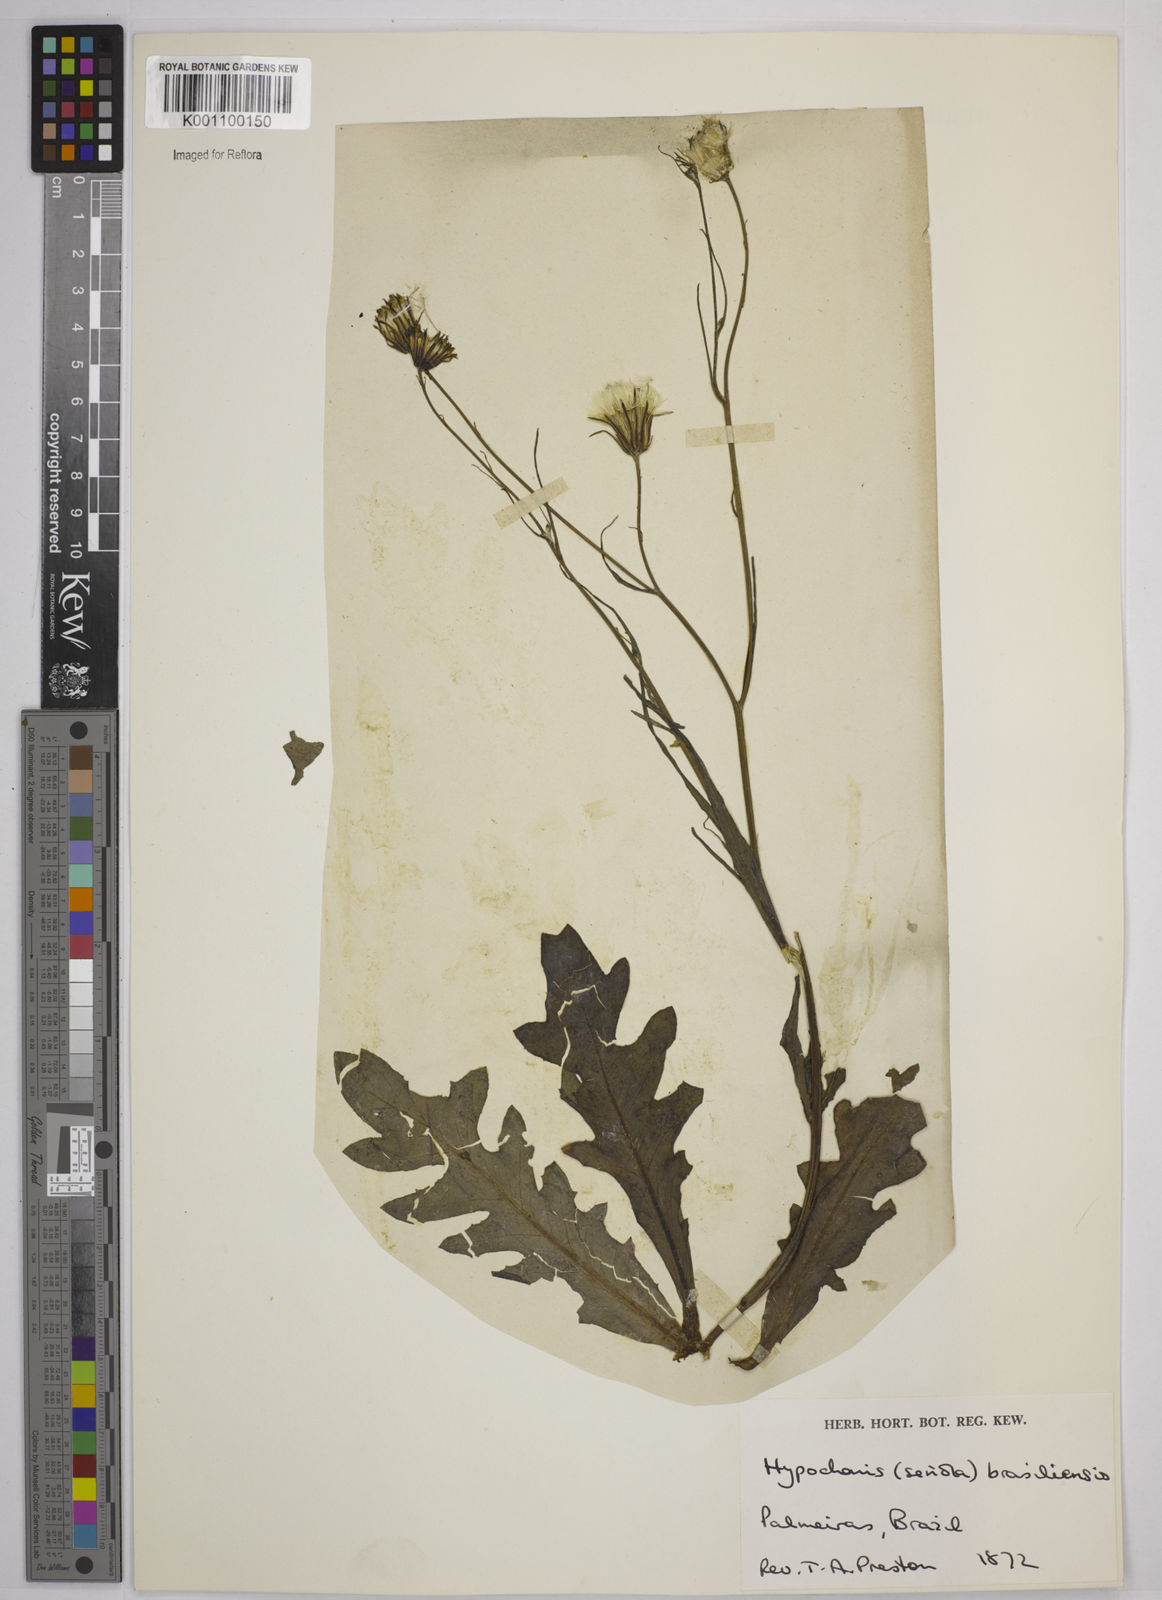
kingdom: Plantae
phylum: Tracheophyta
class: Magnoliopsida
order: Asterales
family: Asteraceae
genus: Hypochaeris
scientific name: Hypochaeris chillensis
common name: Brazilian cat's ear
